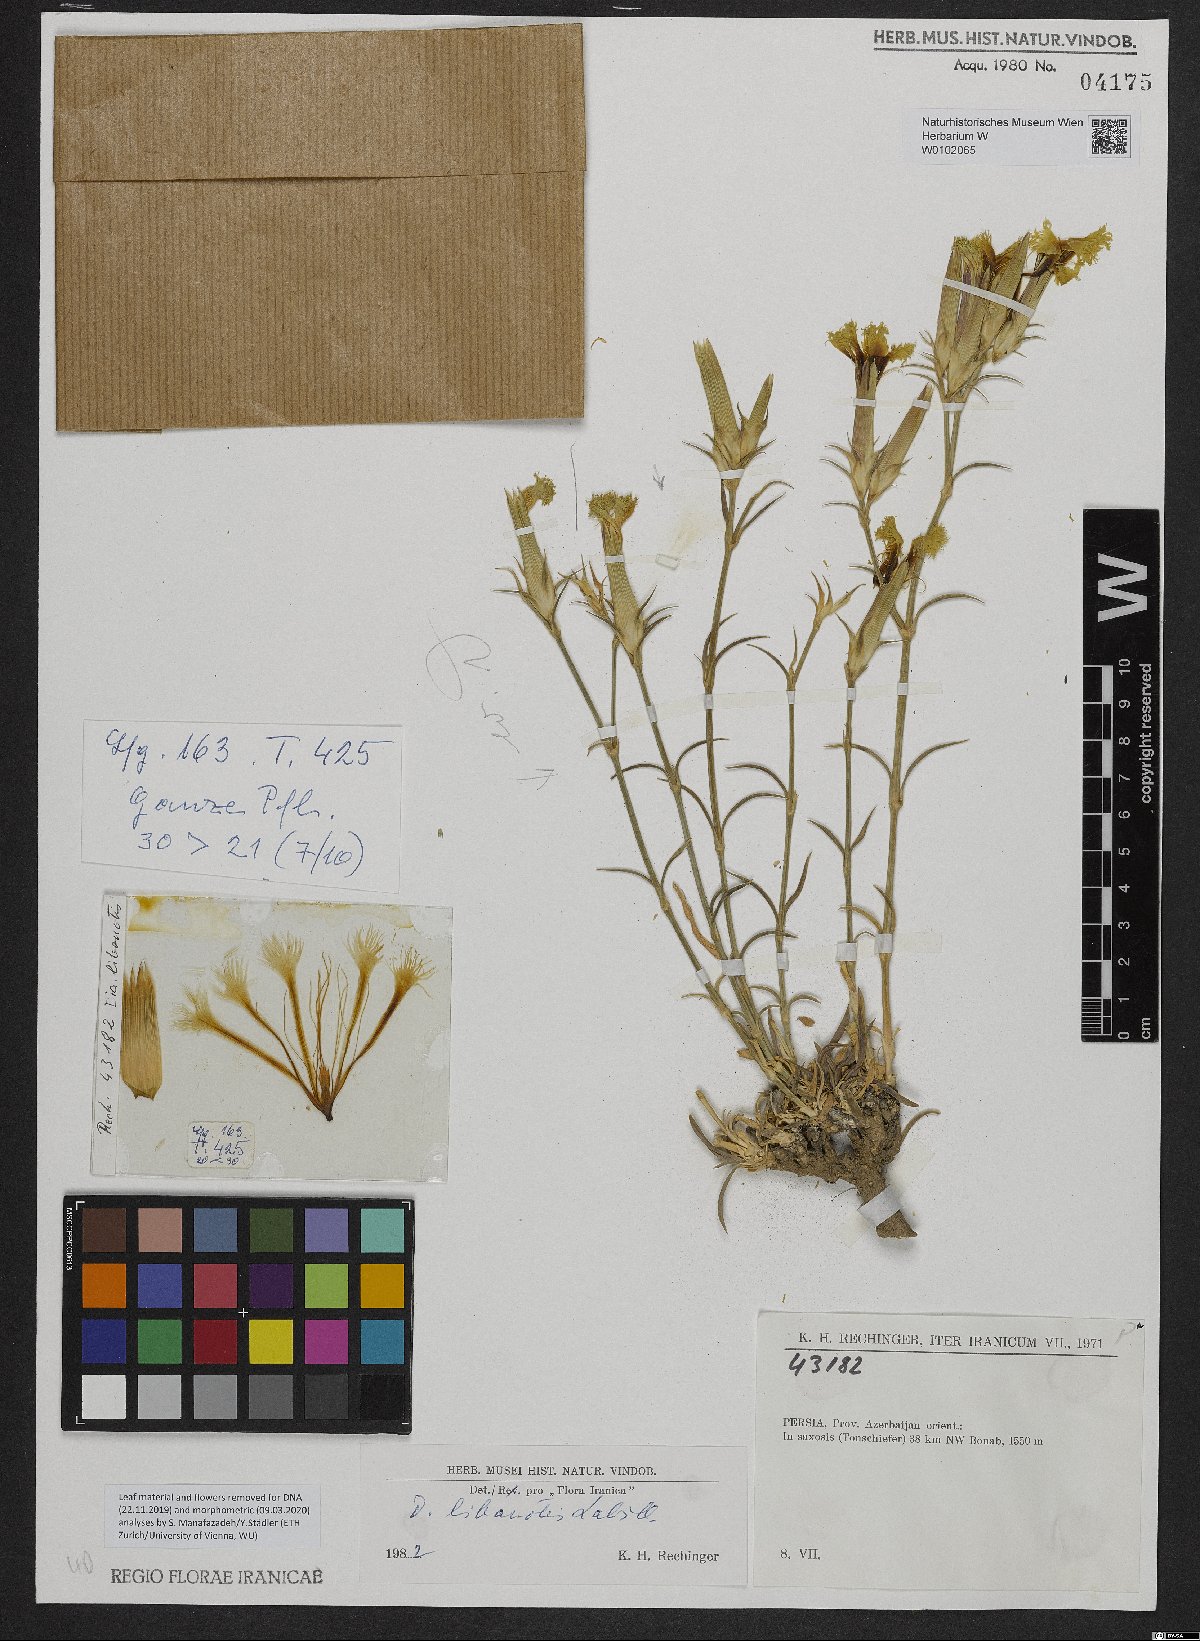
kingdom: Plantae
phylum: Tracheophyta
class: Magnoliopsida
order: Caryophyllales
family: Caryophyllaceae
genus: Dianthus
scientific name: Dianthus libanotis
